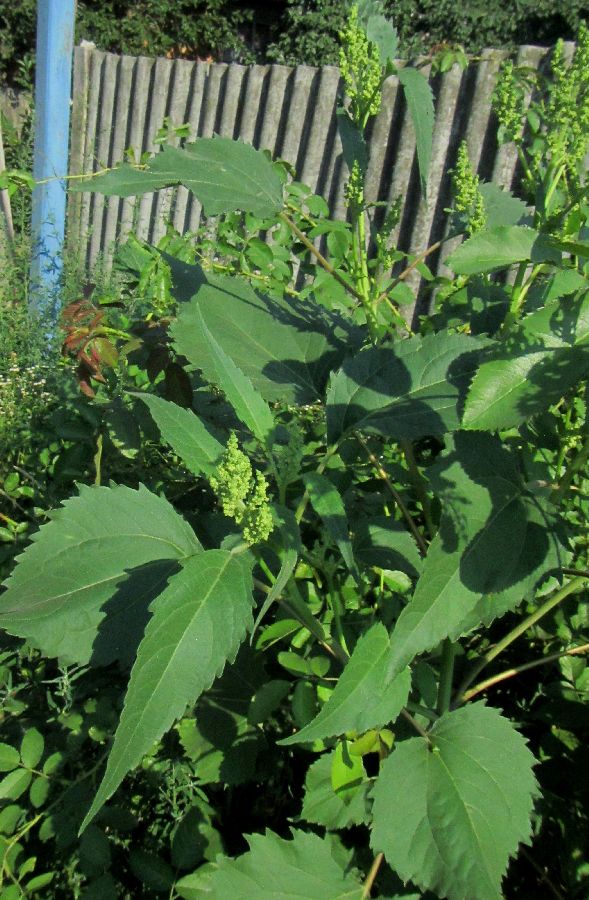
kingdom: Plantae
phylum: Tracheophyta
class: Magnoliopsida
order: Asterales
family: Asteraceae
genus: Cyclachaena
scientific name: Cyclachaena xanthiifolia
